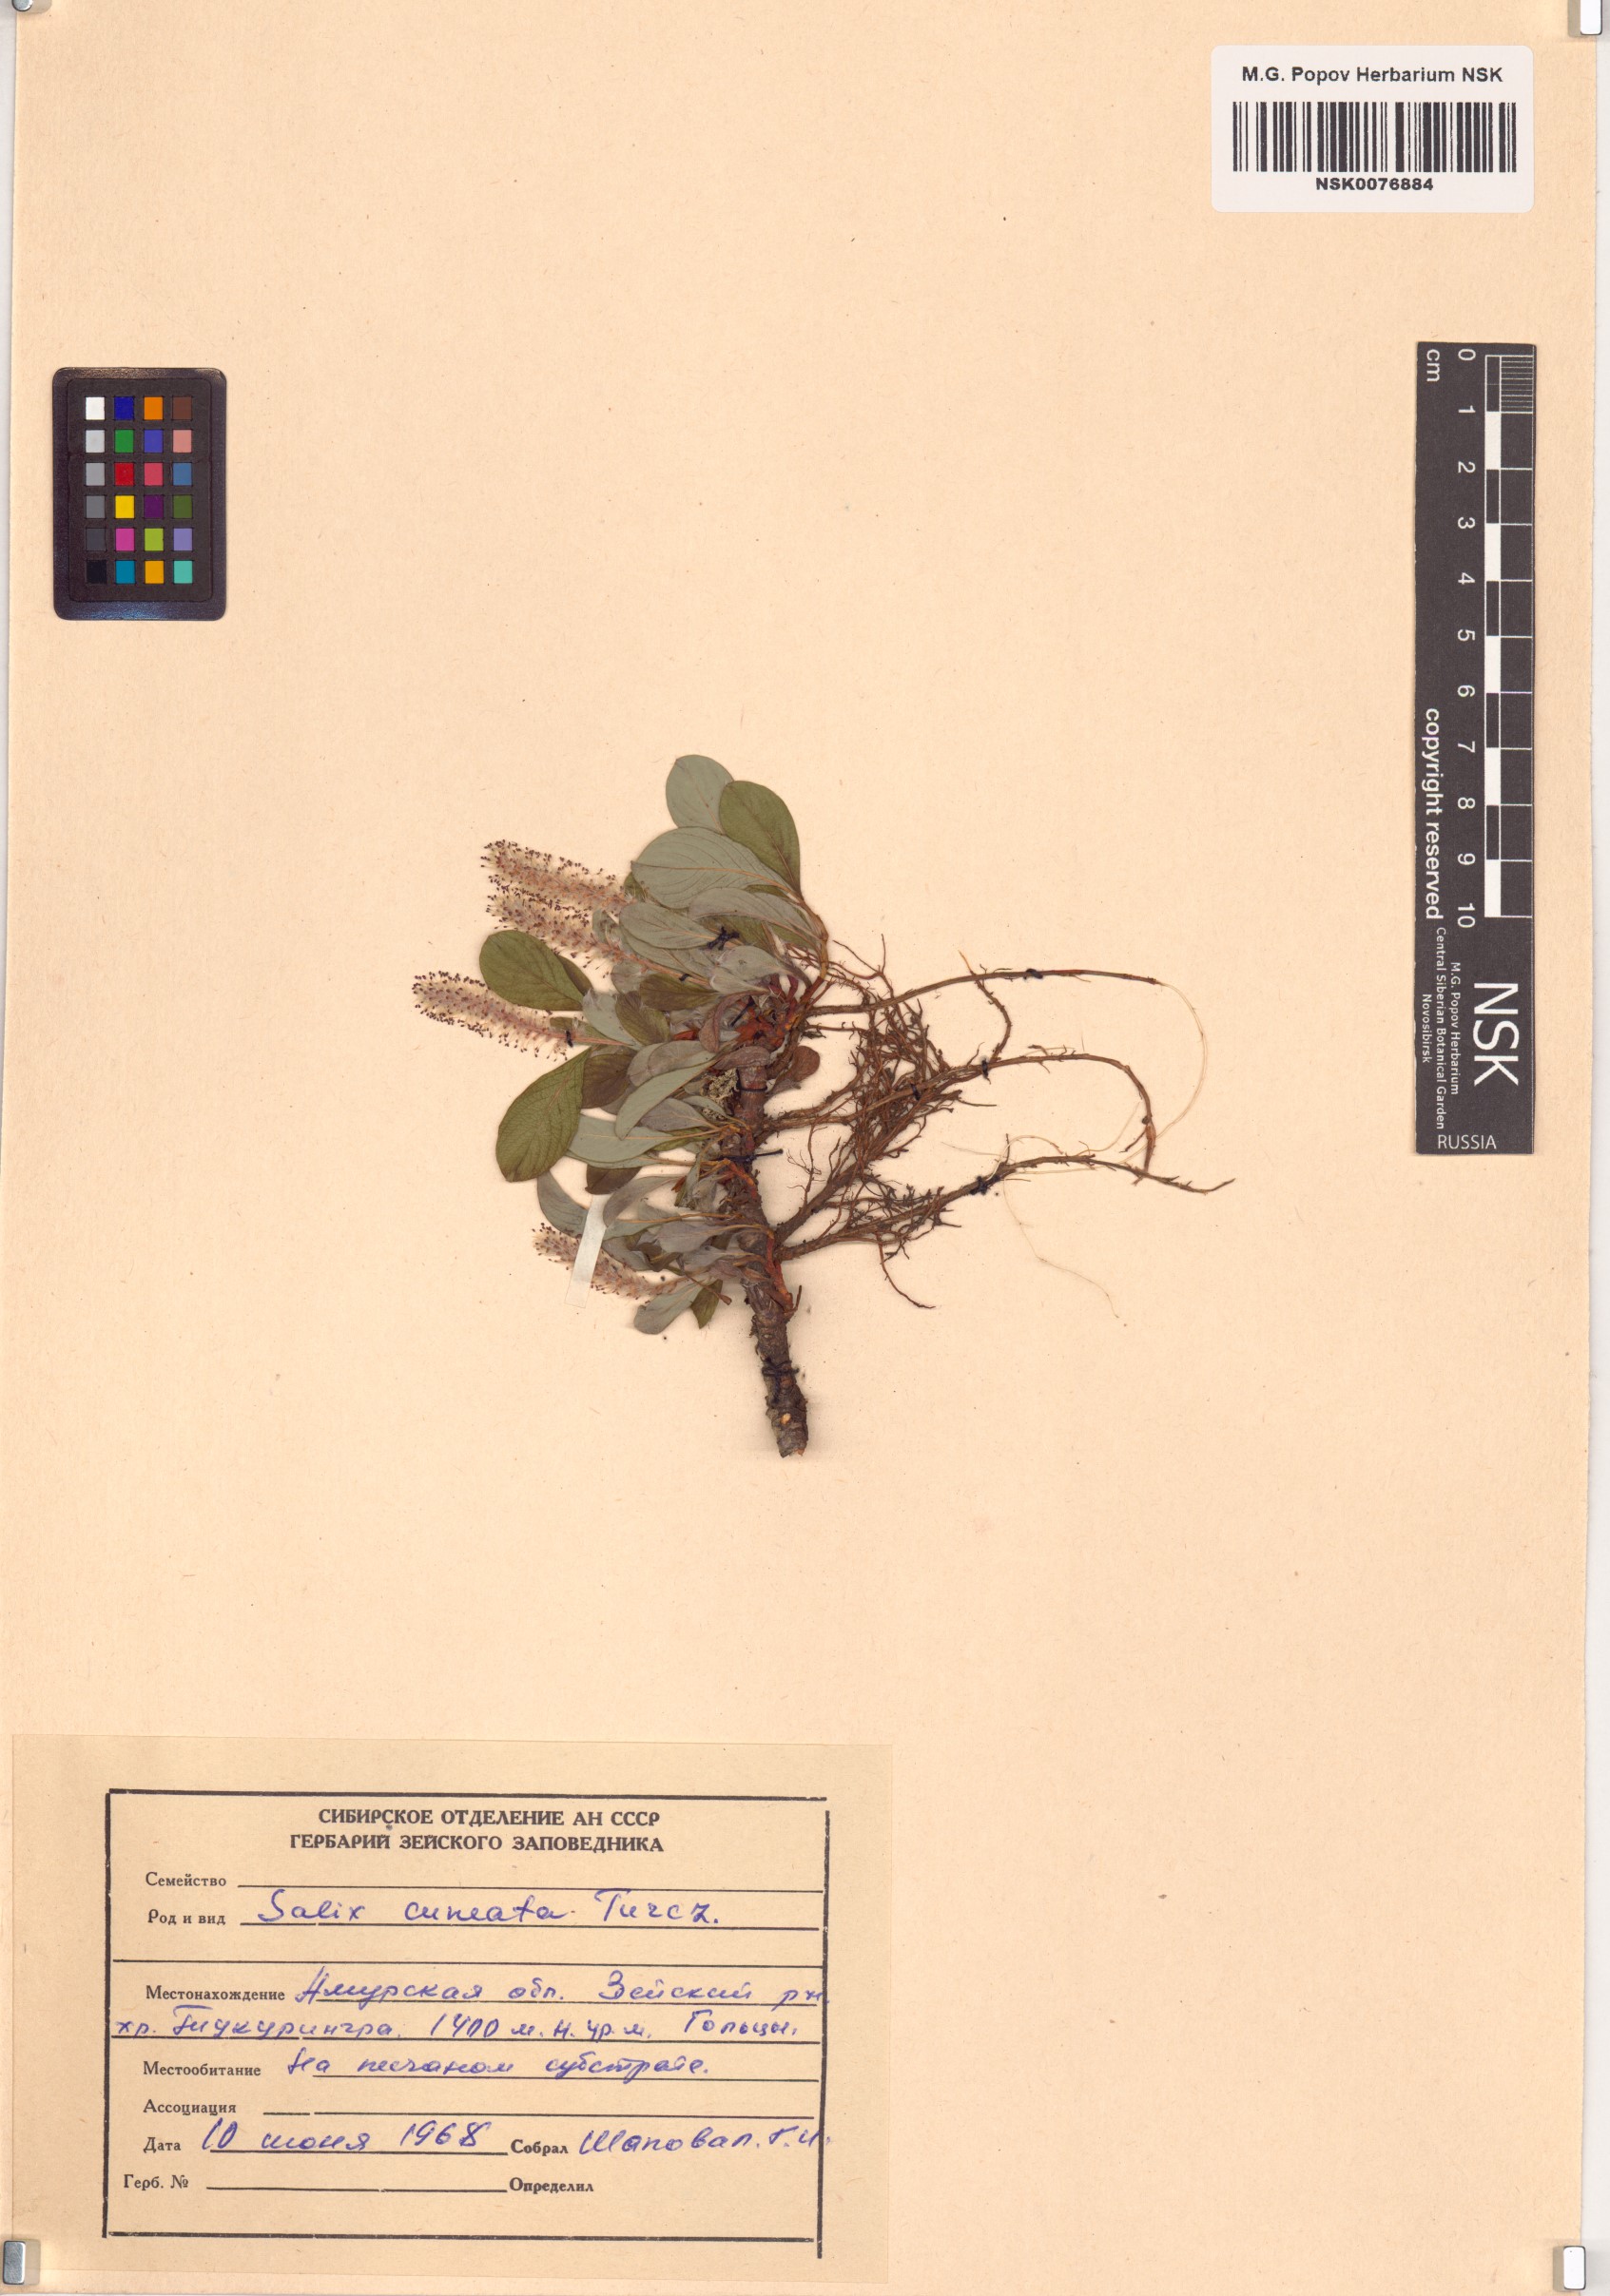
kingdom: Plantae
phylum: Tracheophyta
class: Magnoliopsida
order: Malpighiales
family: Salicaceae
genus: Salix
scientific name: Salix
